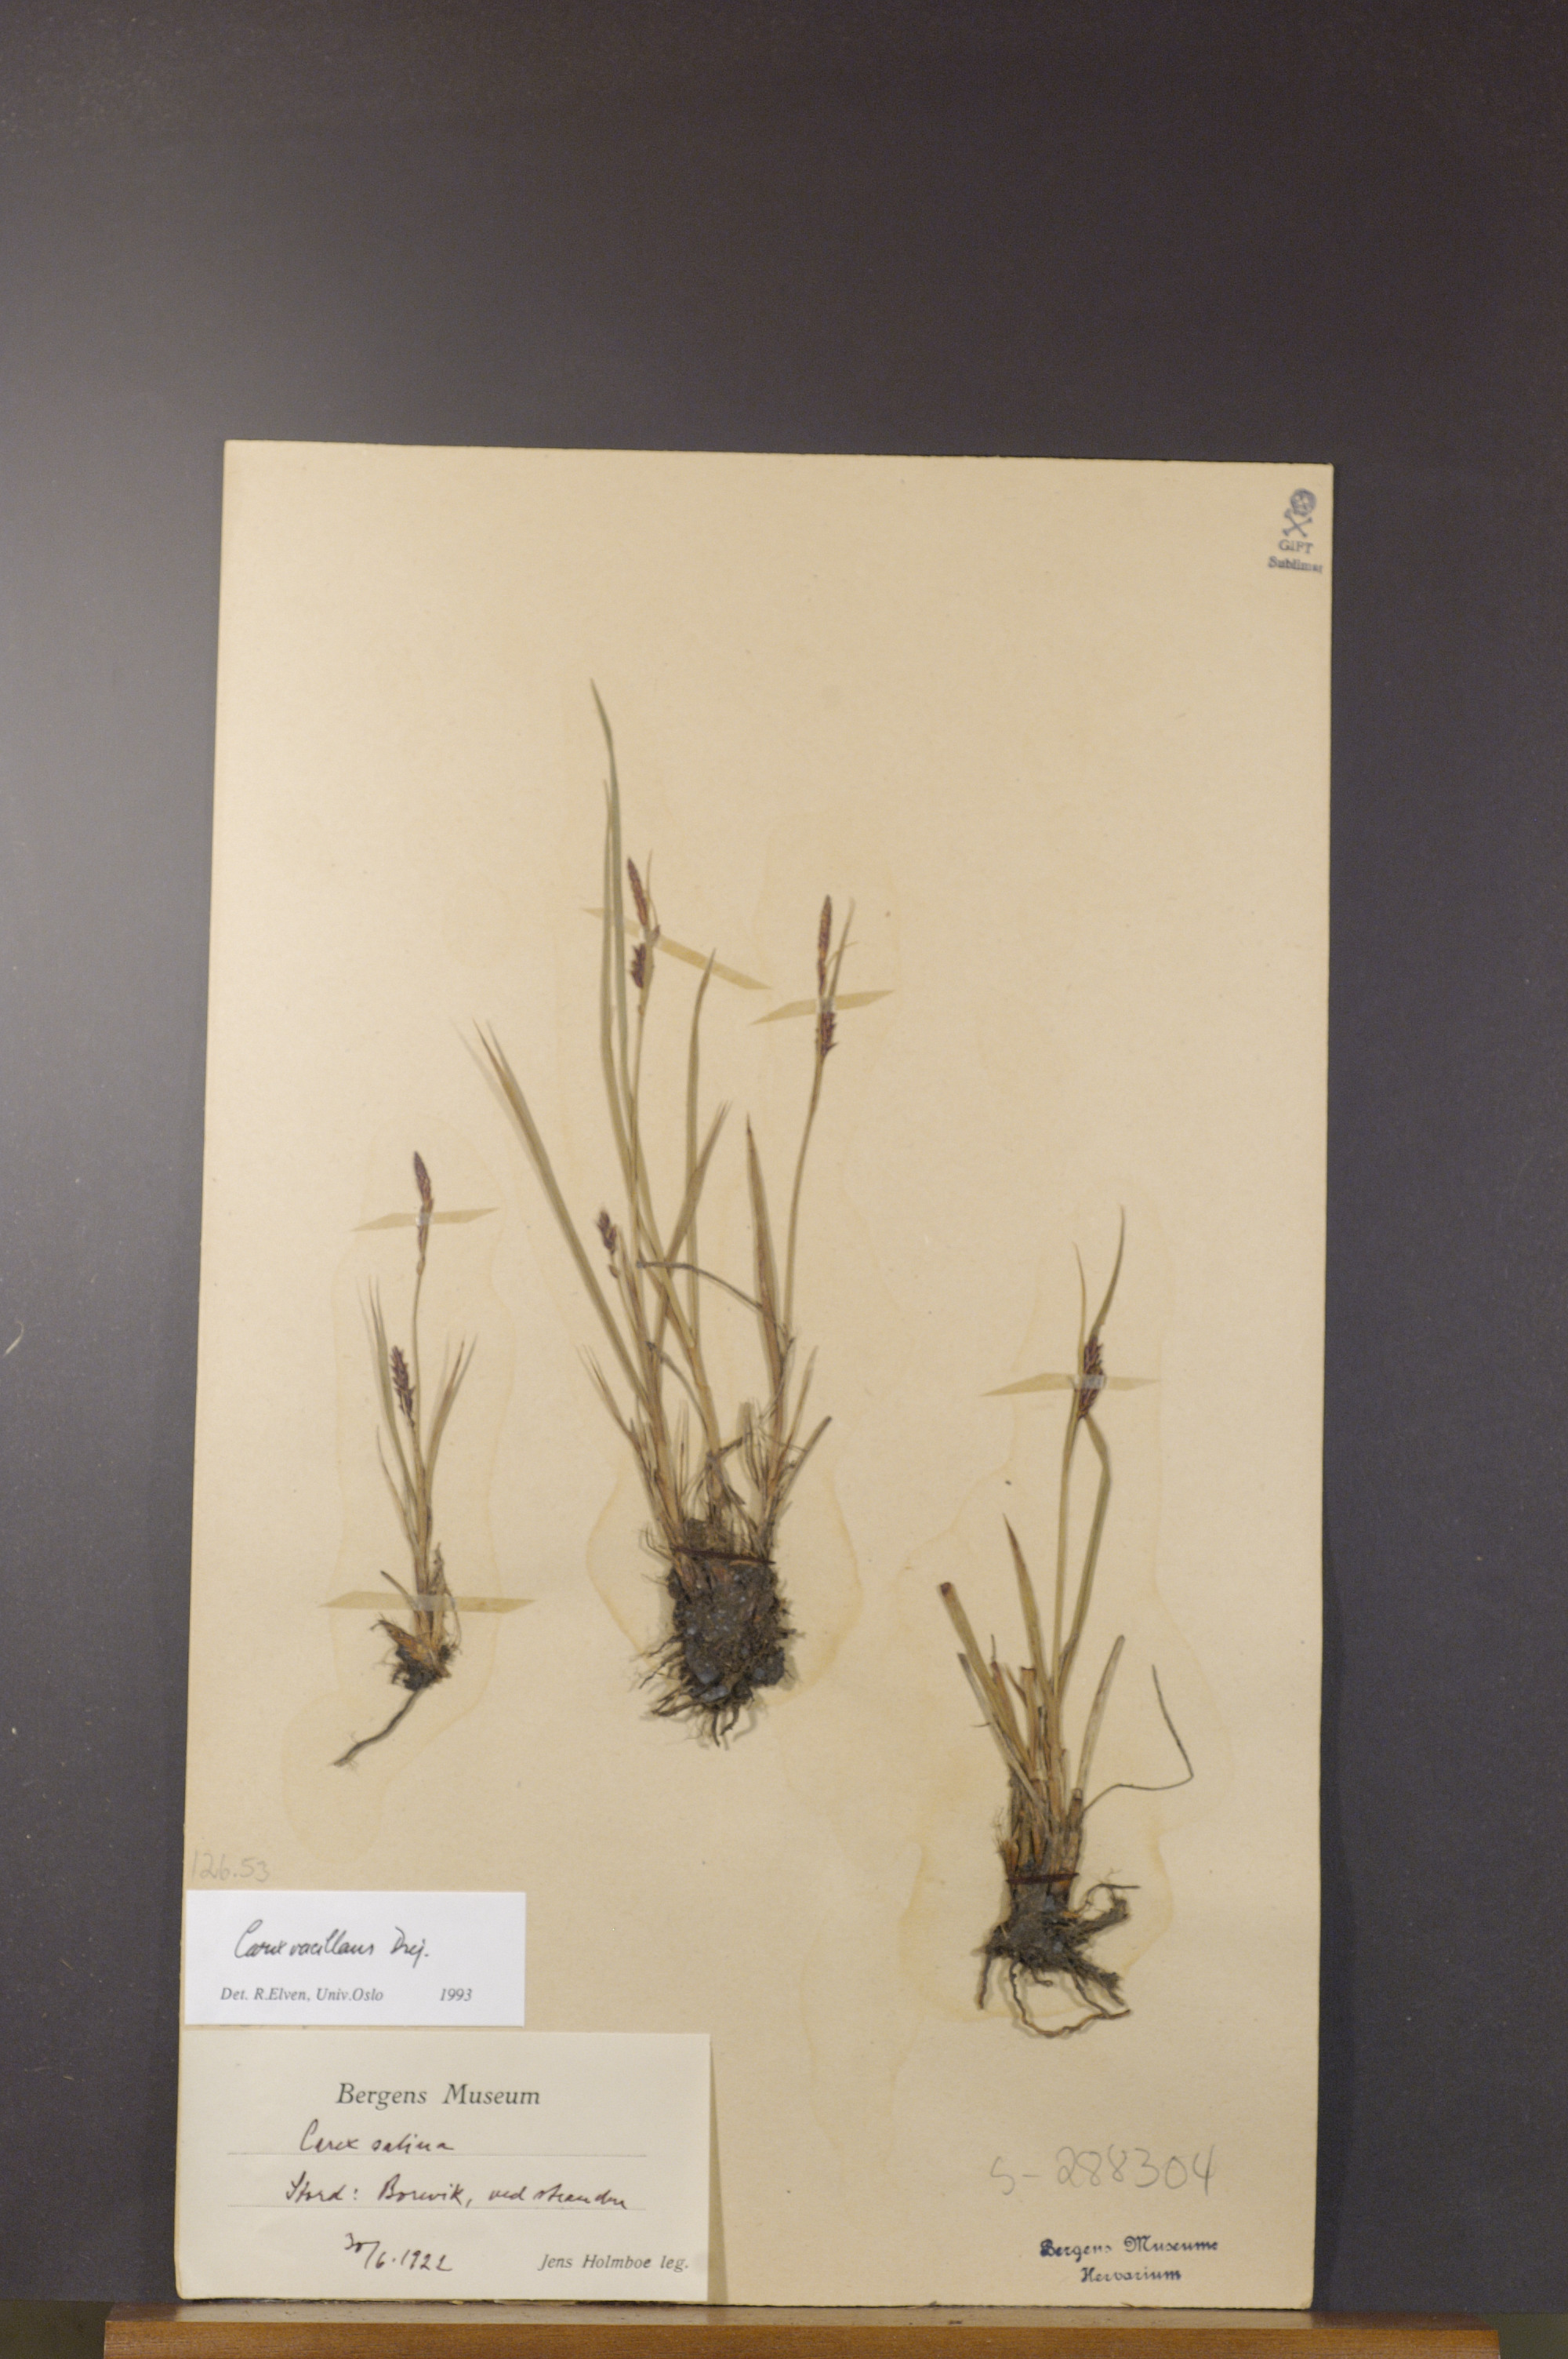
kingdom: Plantae
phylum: Tracheophyta
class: Liliopsida
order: Poales
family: Cyperaceae
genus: Carex
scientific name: Carex vacillans
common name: Sedge
